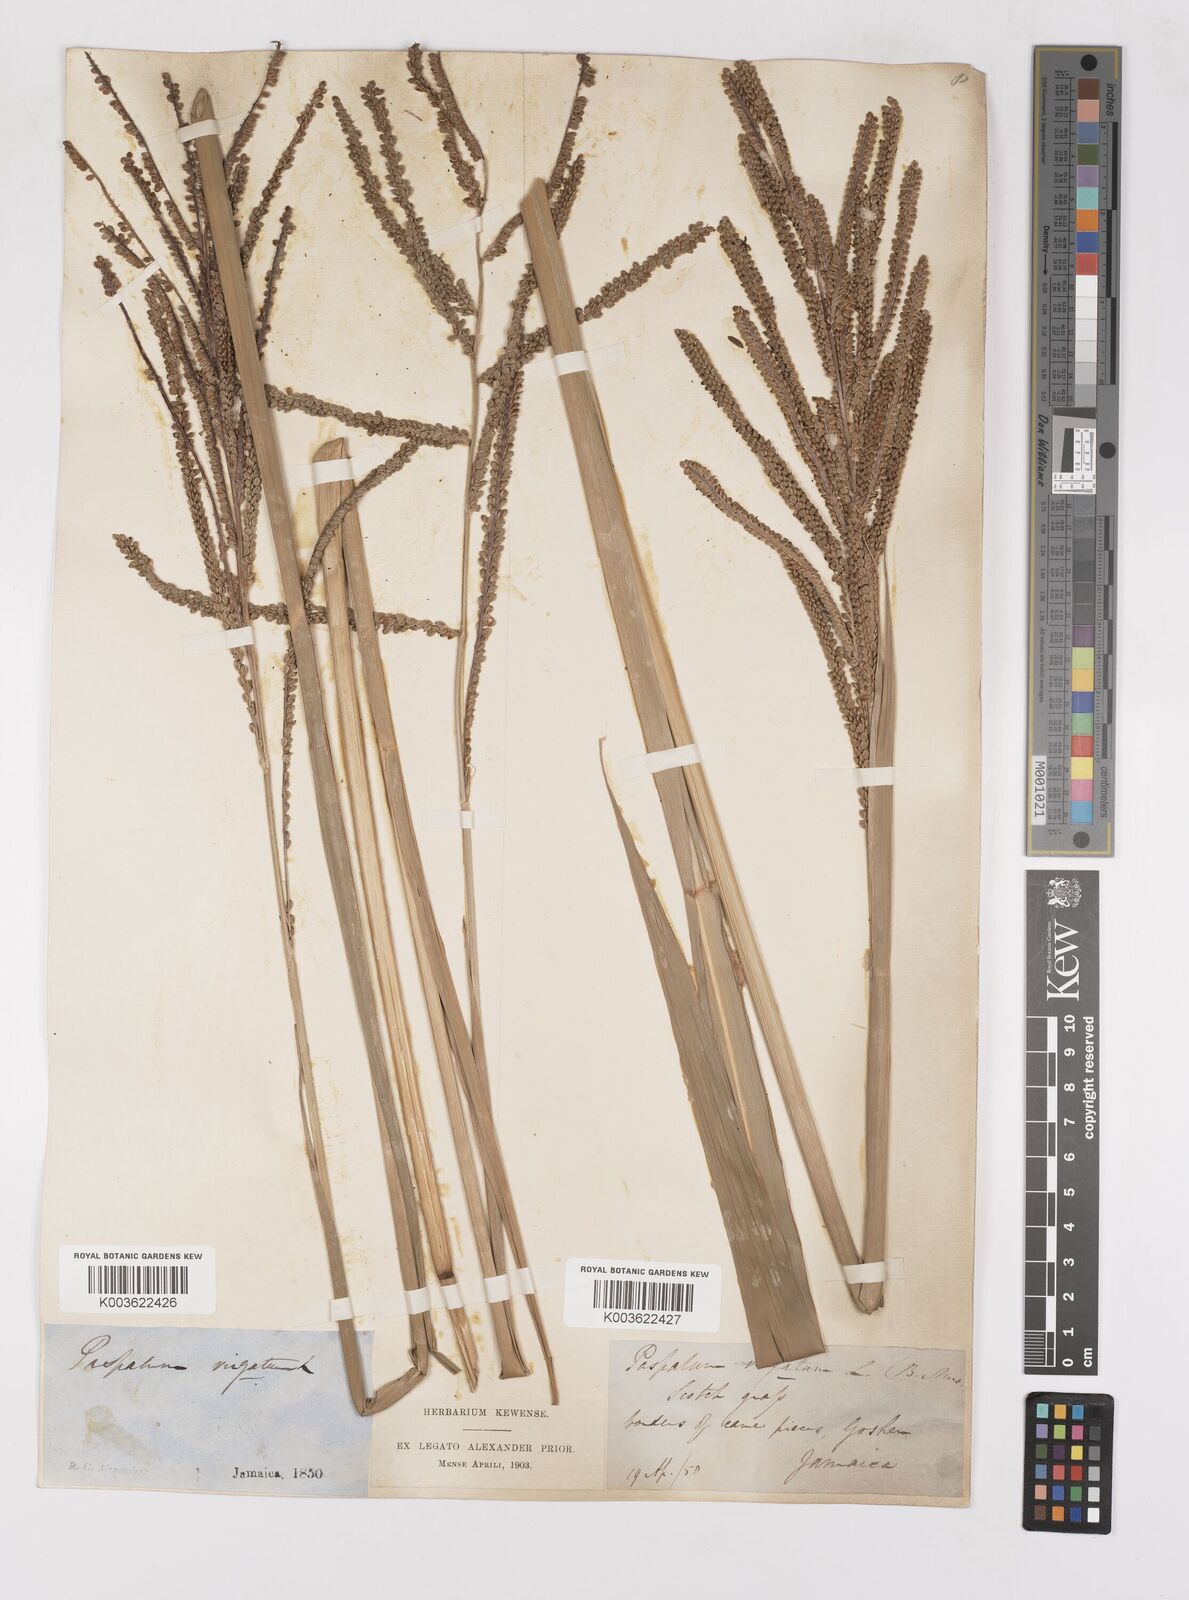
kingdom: Plantae
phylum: Tracheophyta
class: Liliopsida
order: Poales
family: Poaceae
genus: Paspalum
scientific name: Paspalum virgatum
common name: Talquezal
